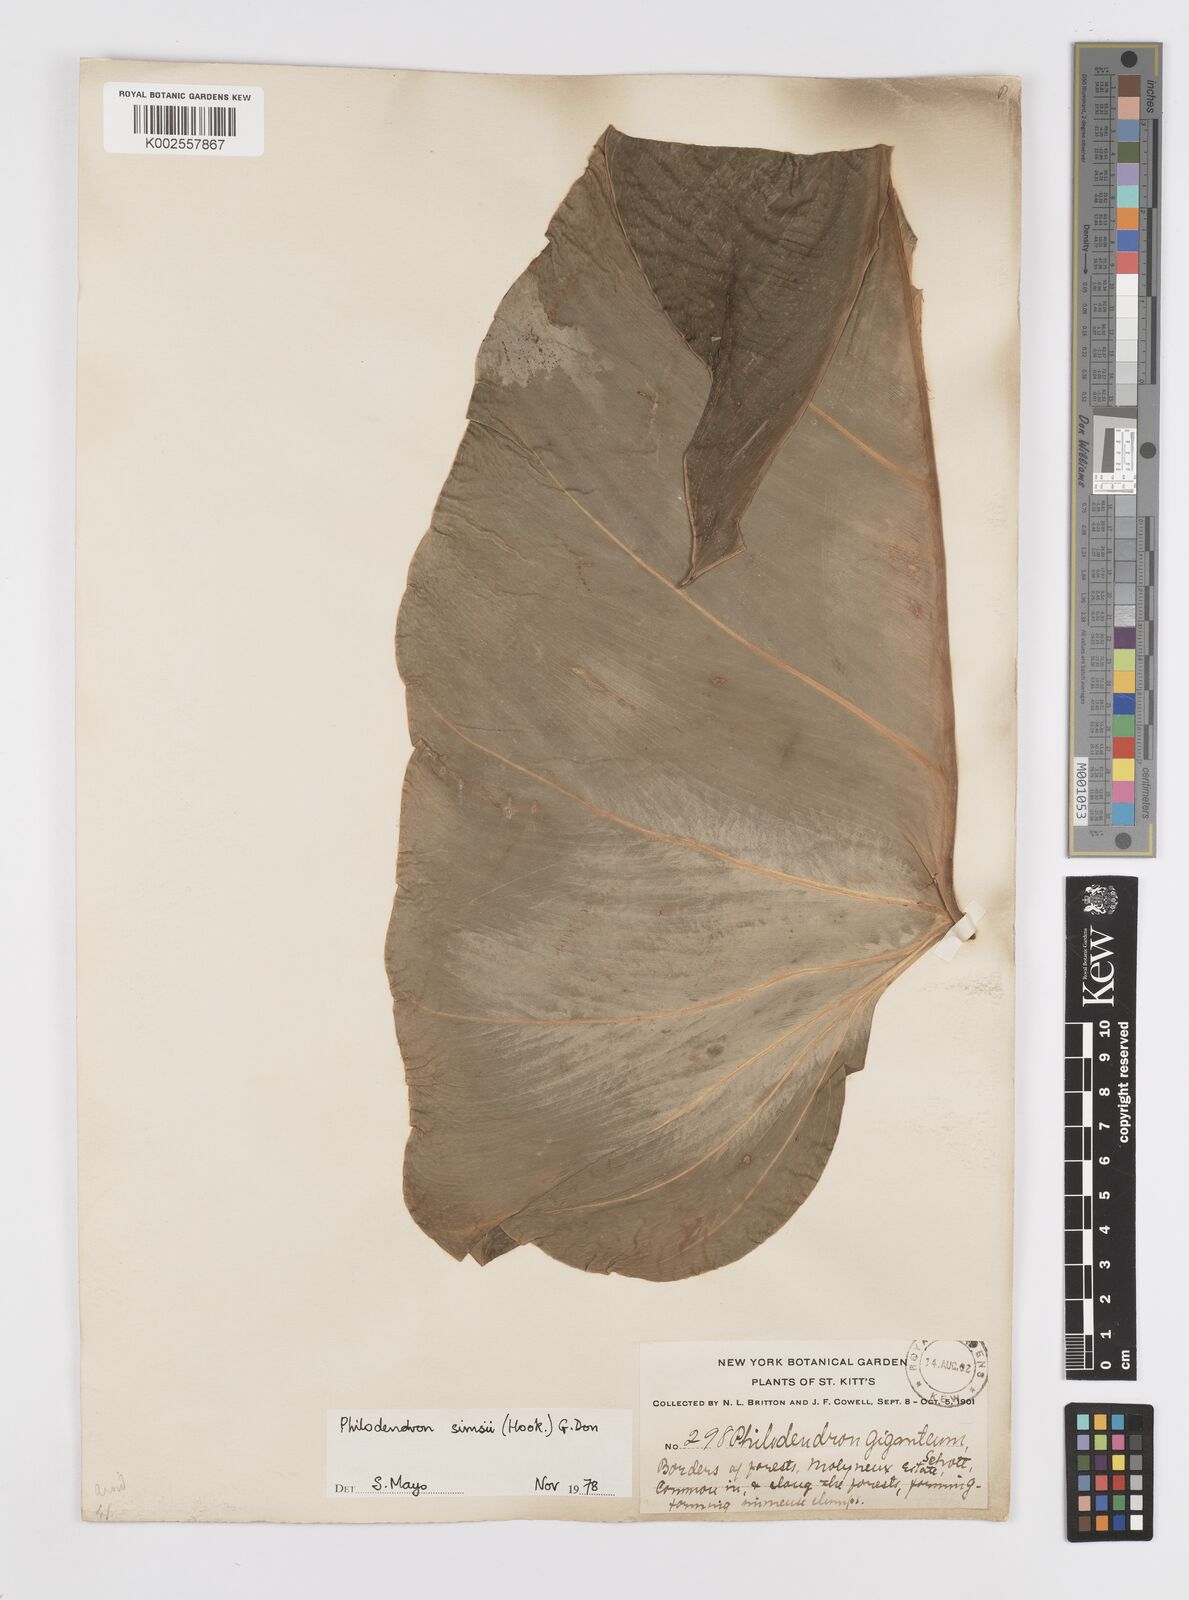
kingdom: Plantae
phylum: Tracheophyta
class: Liliopsida
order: Alismatales
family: Araceae
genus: Philodendron
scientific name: Philodendron
